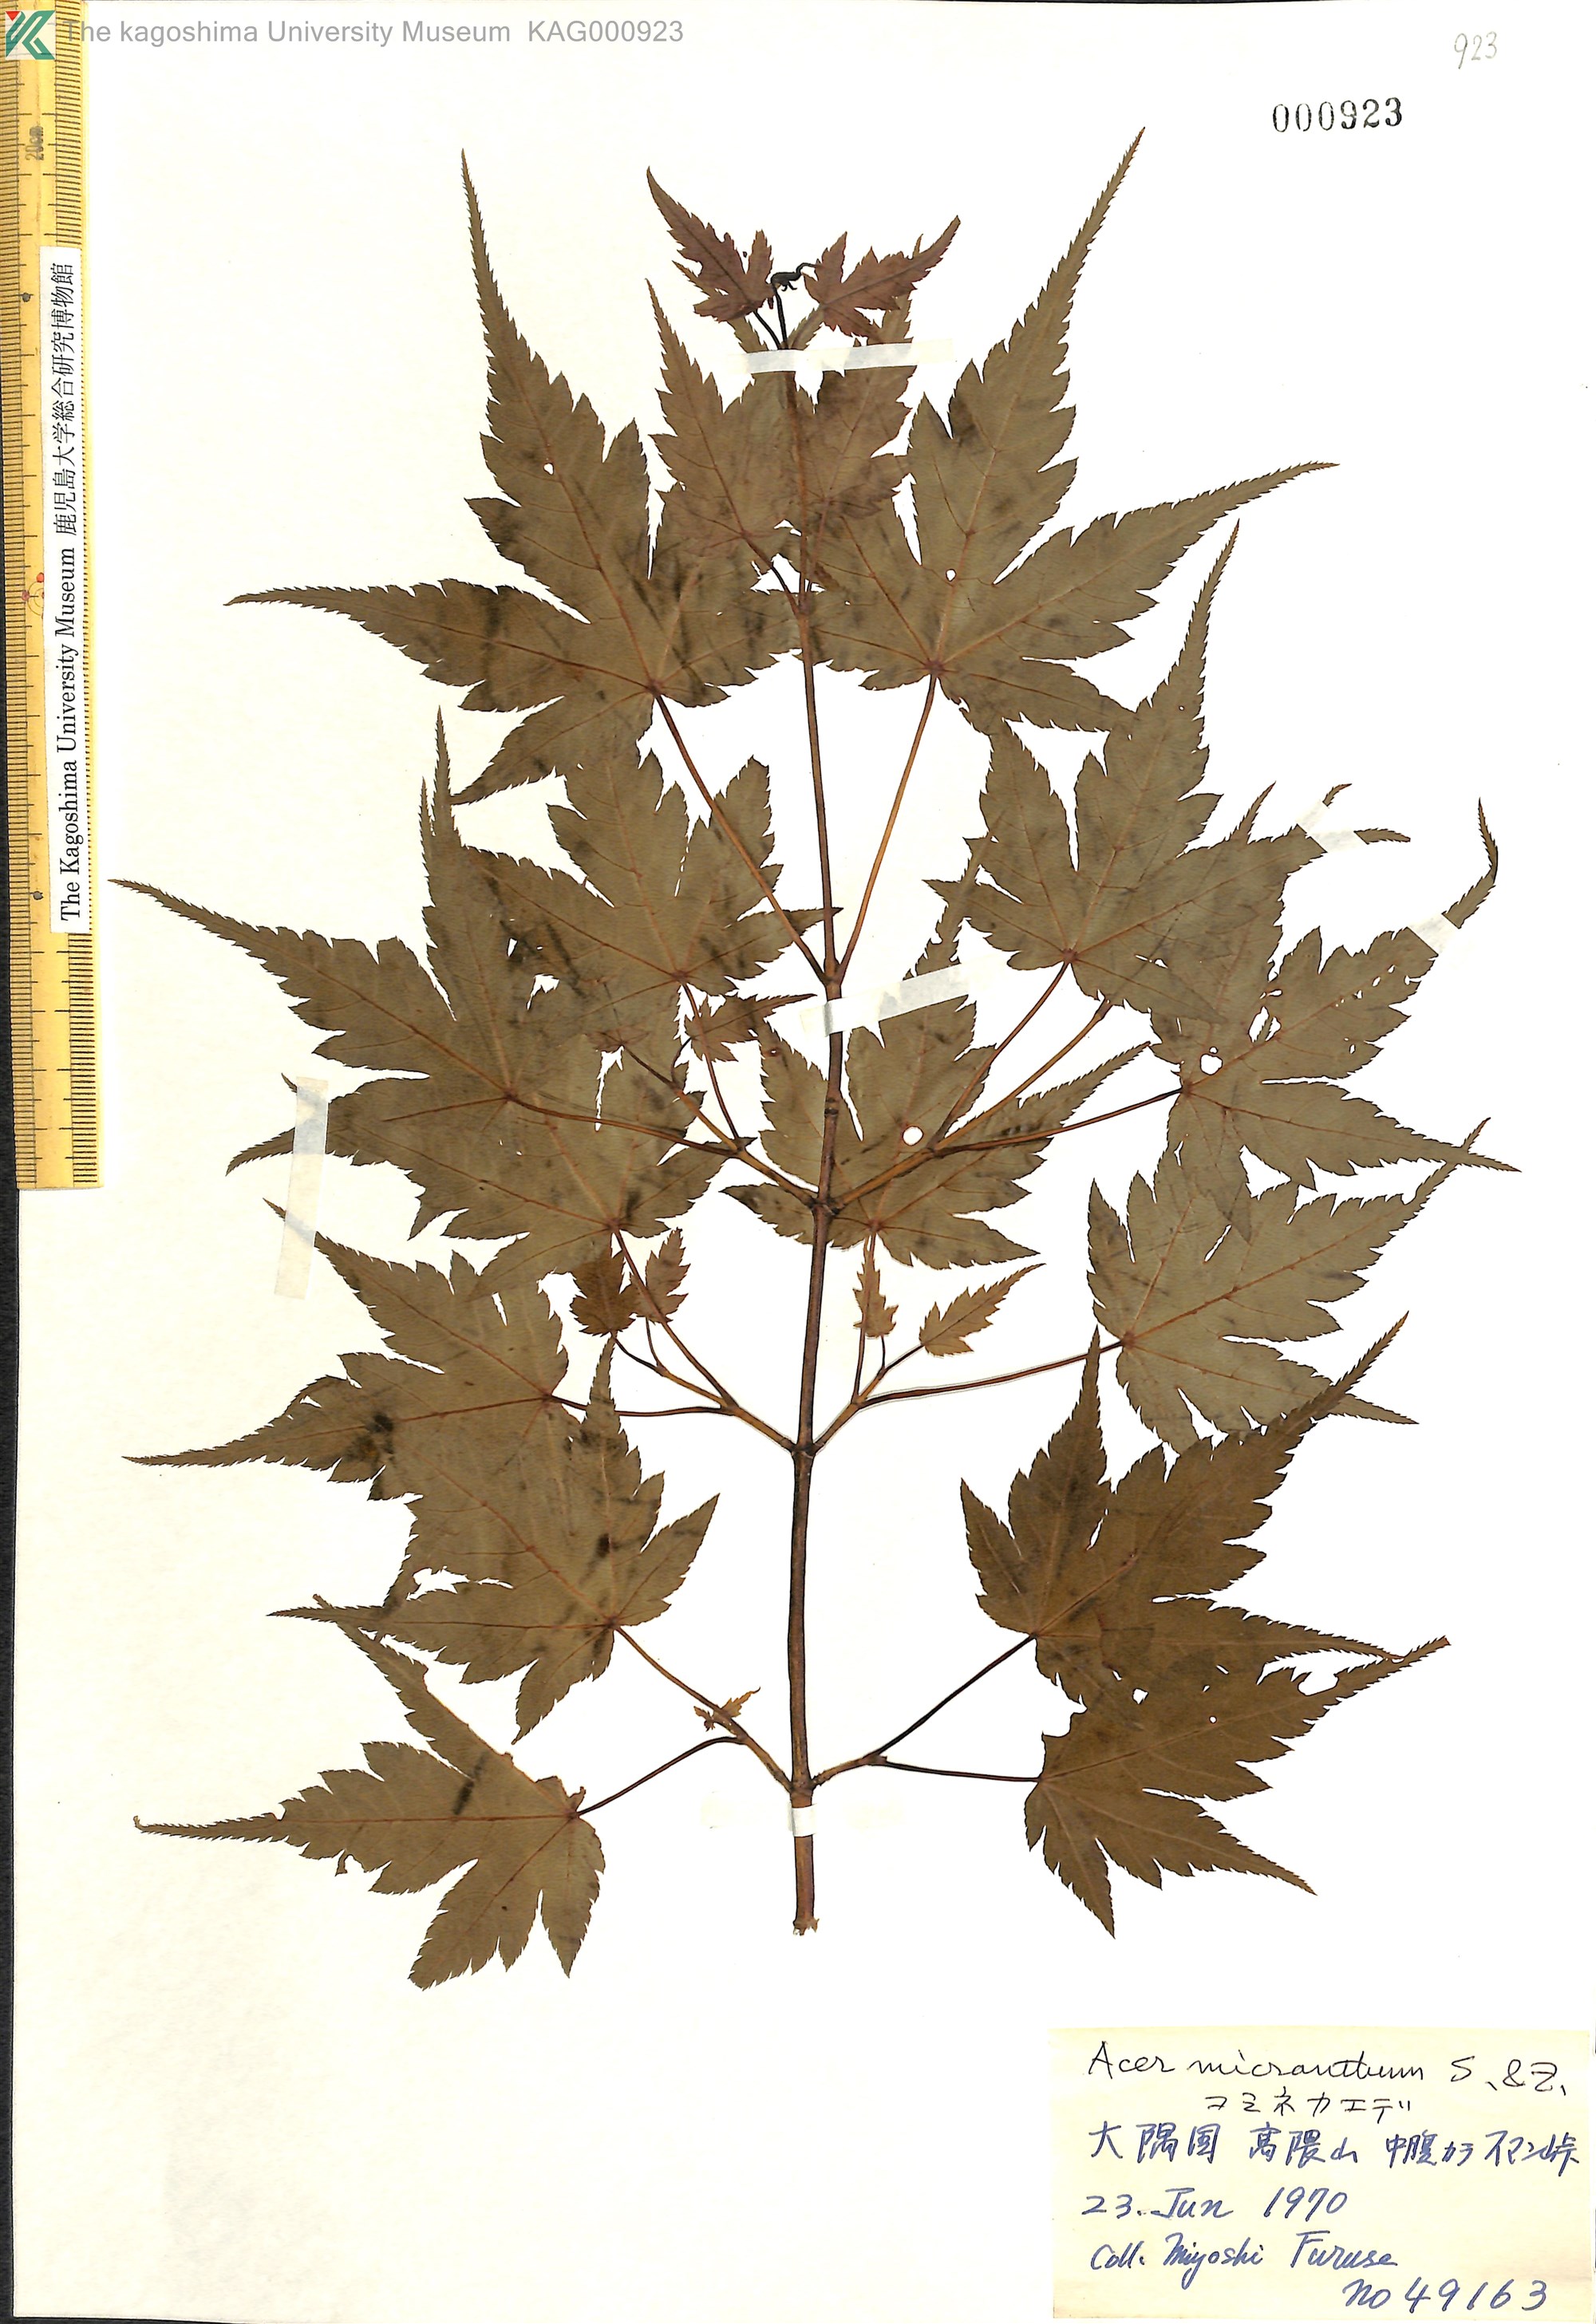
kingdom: Plantae
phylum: Tracheophyta
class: Magnoliopsida
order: Sapindales
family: Sapindaceae
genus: Acer
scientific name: Acer micranthum
